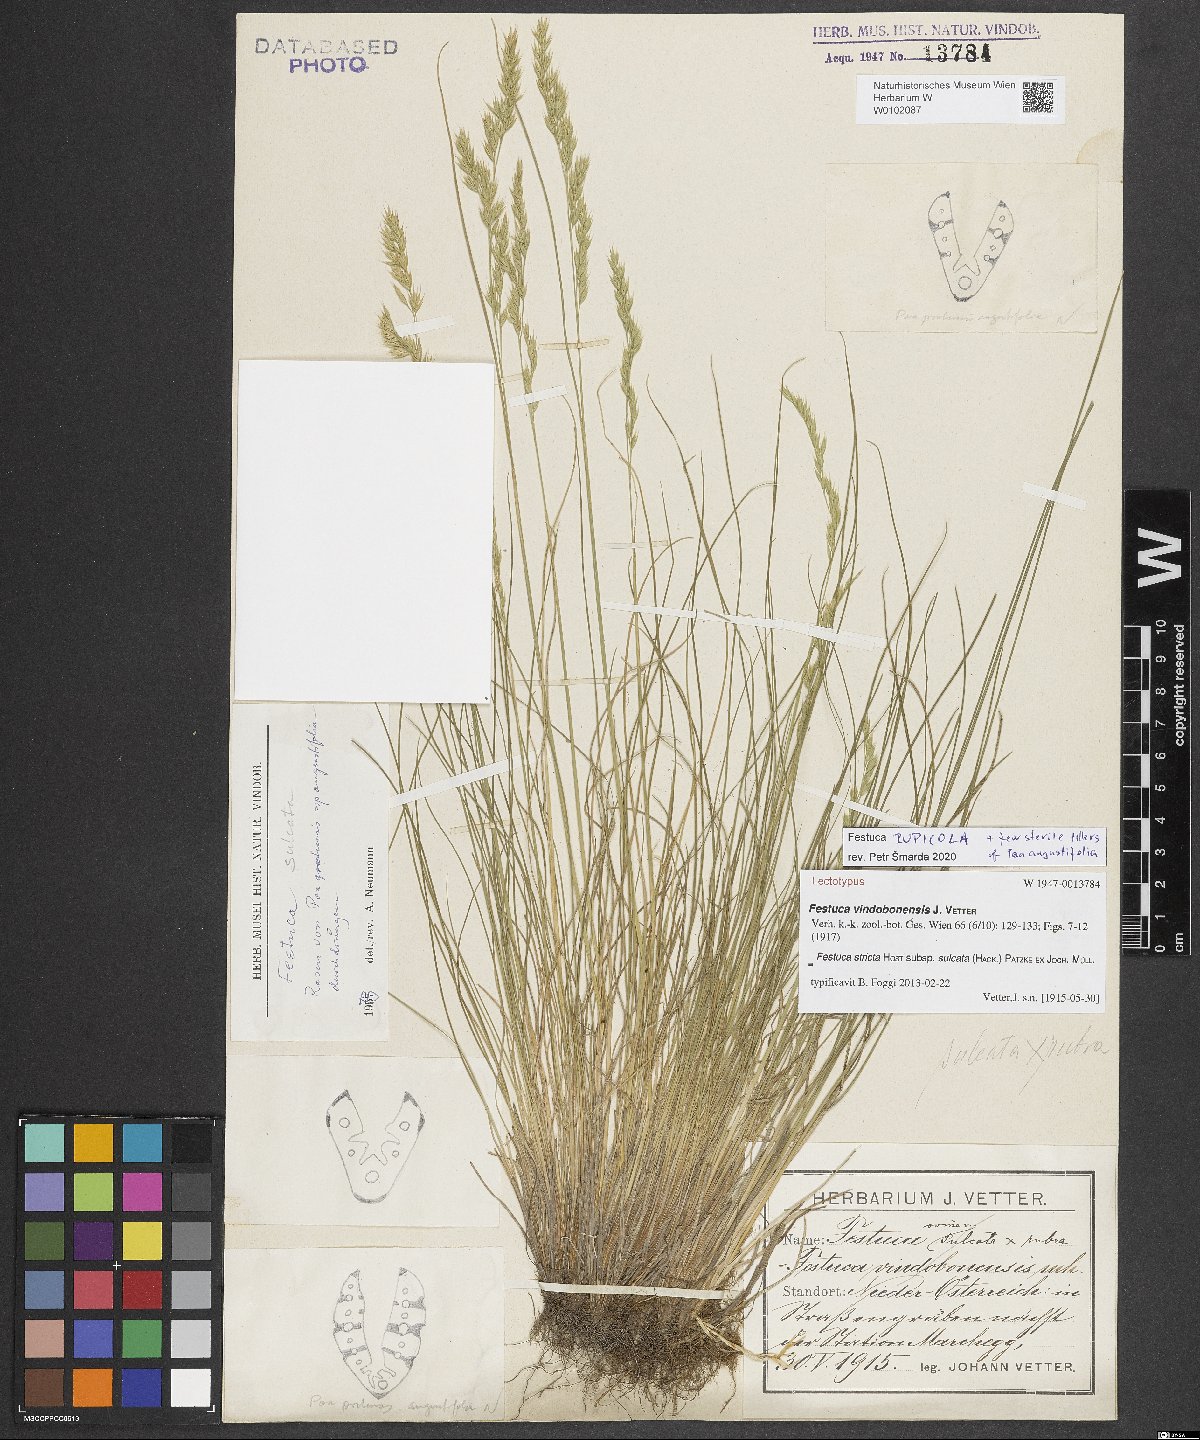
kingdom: Plantae
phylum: Tracheophyta
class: Liliopsida
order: Poales
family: Poaceae
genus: Festuca
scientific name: Festuca rupicola
